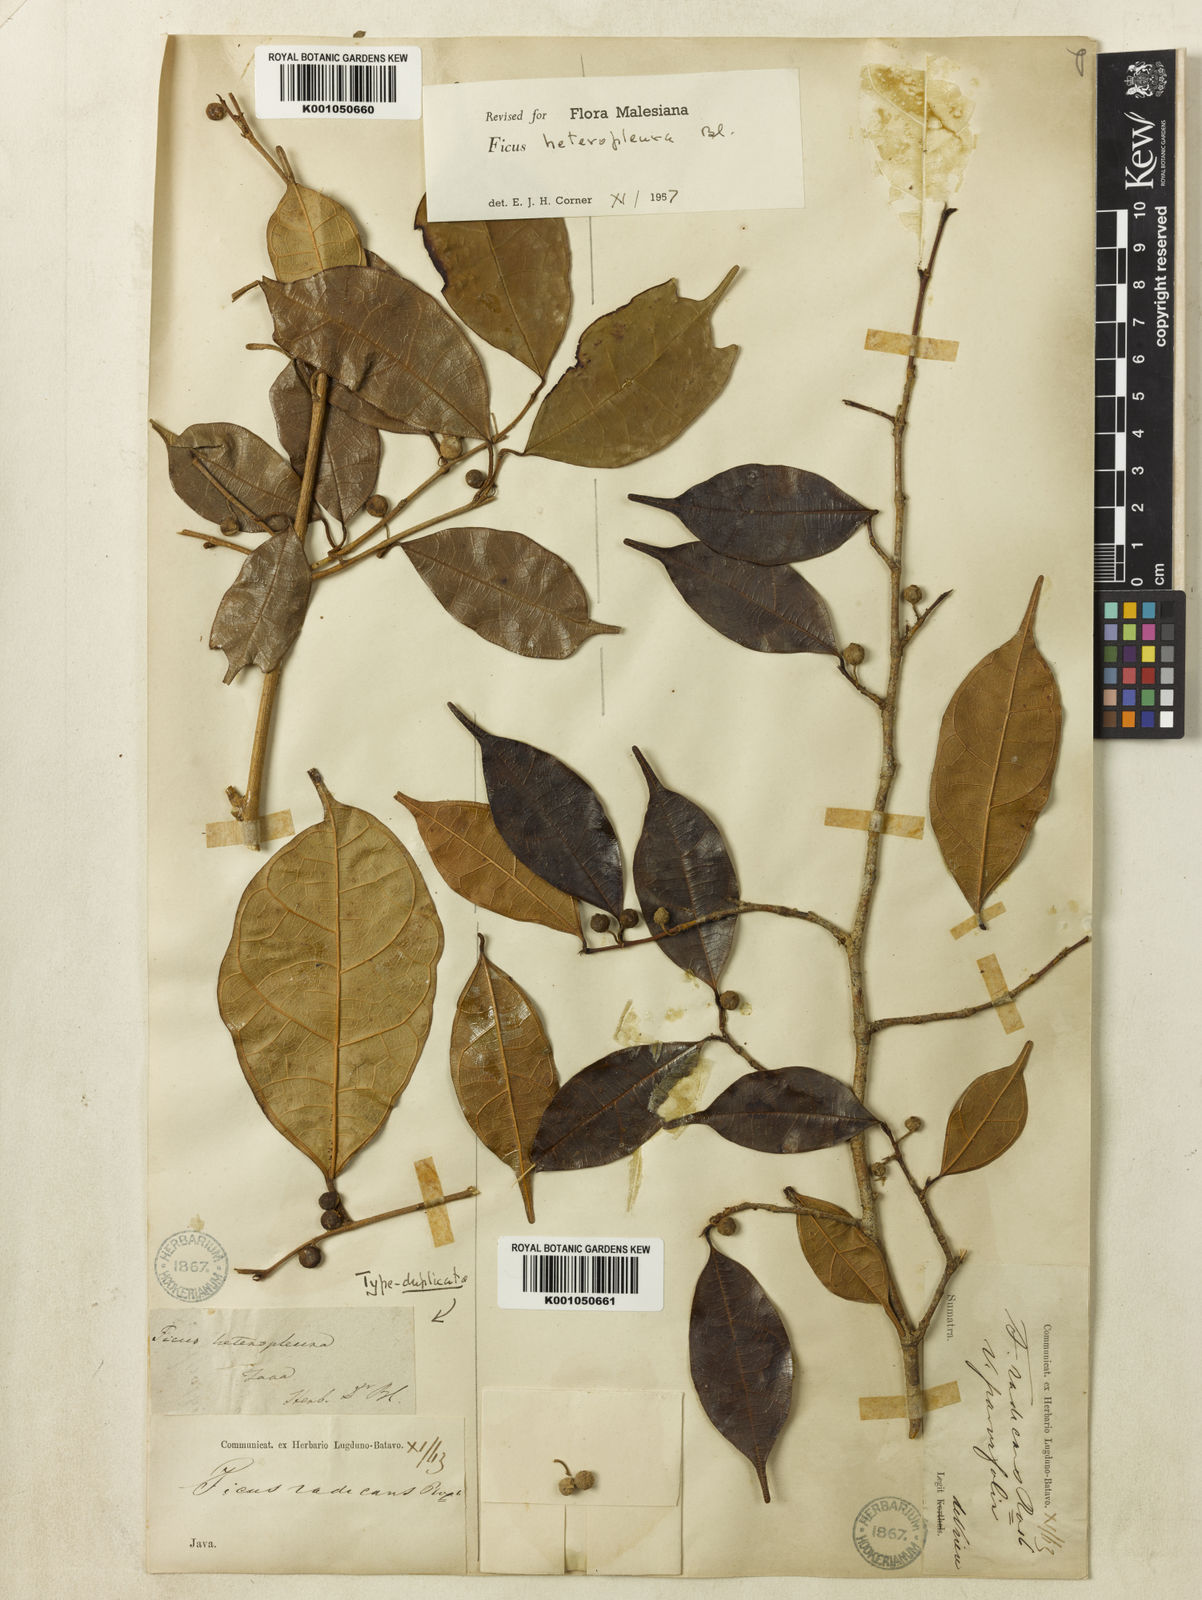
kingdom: Plantae
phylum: Tracheophyta
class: Magnoliopsida
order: Rosales
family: Moraceae
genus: Ficus
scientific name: Ficus heteropleura
